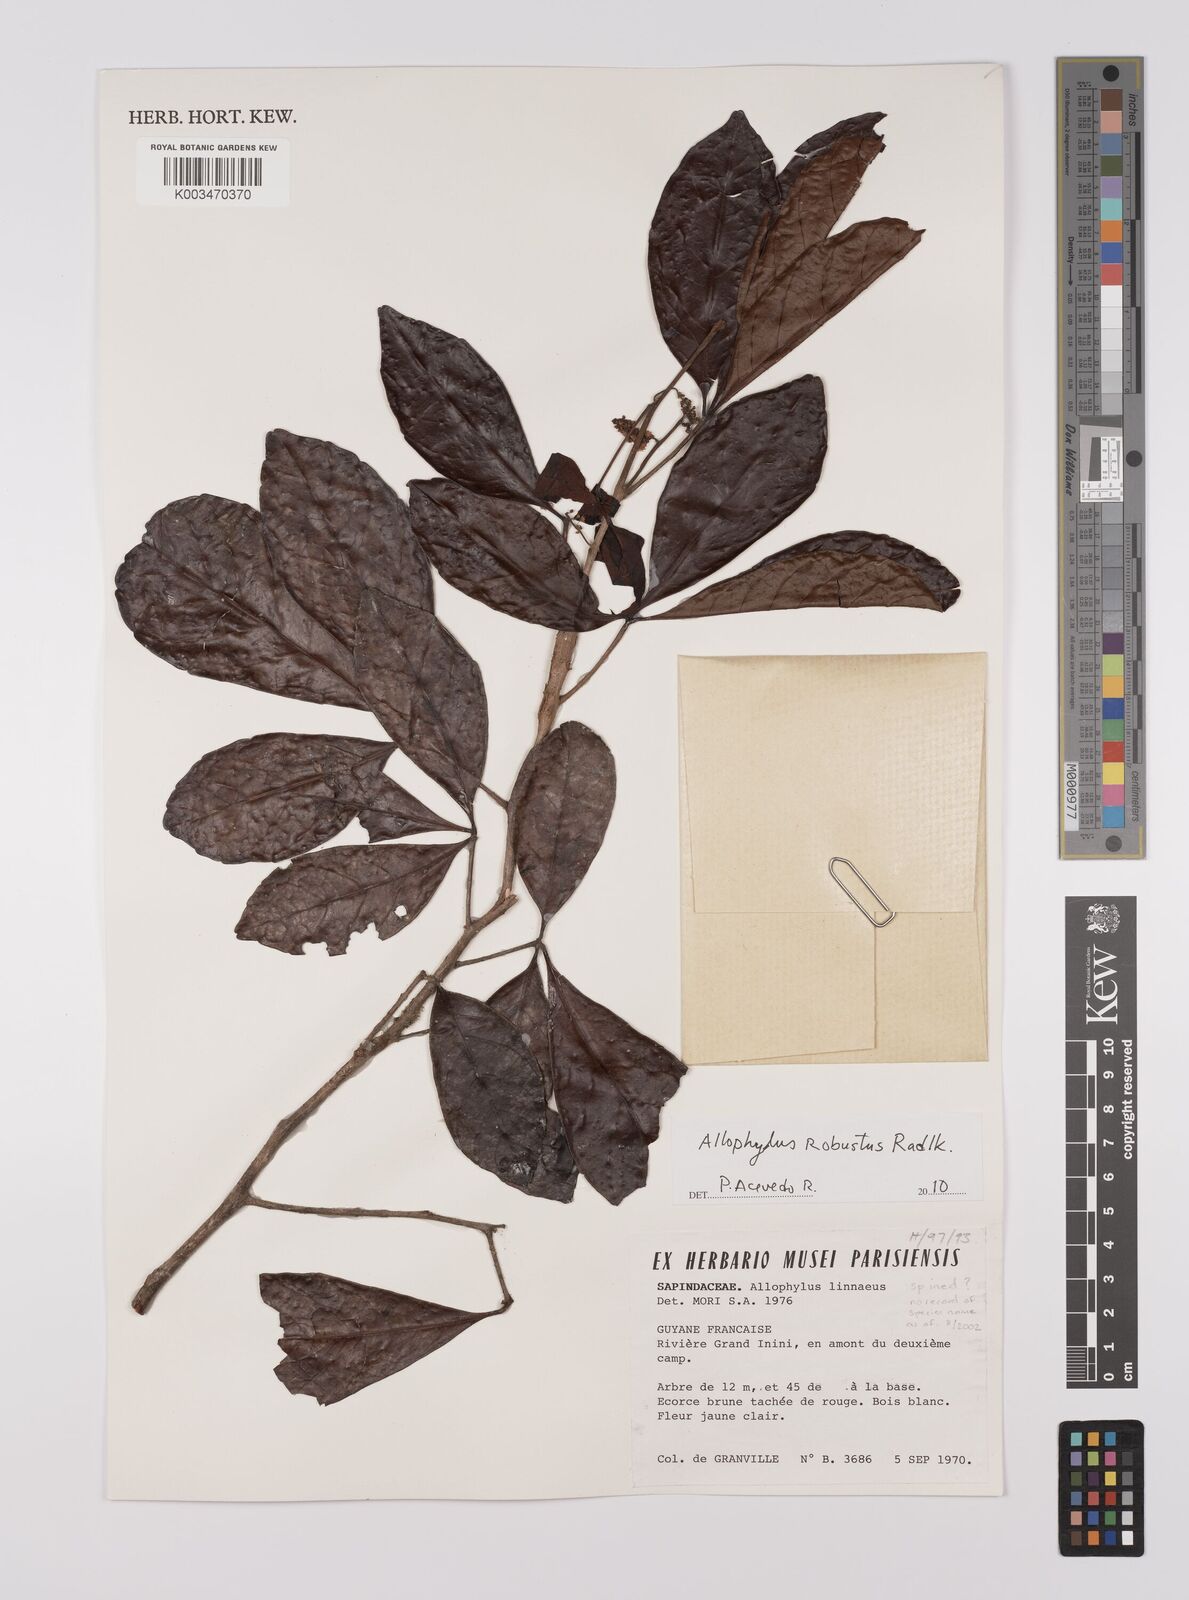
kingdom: Plantae
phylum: Tracheophyta
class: Magnoliopsida
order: Sapindales
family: Sapindaceae
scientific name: Sapindaceae
